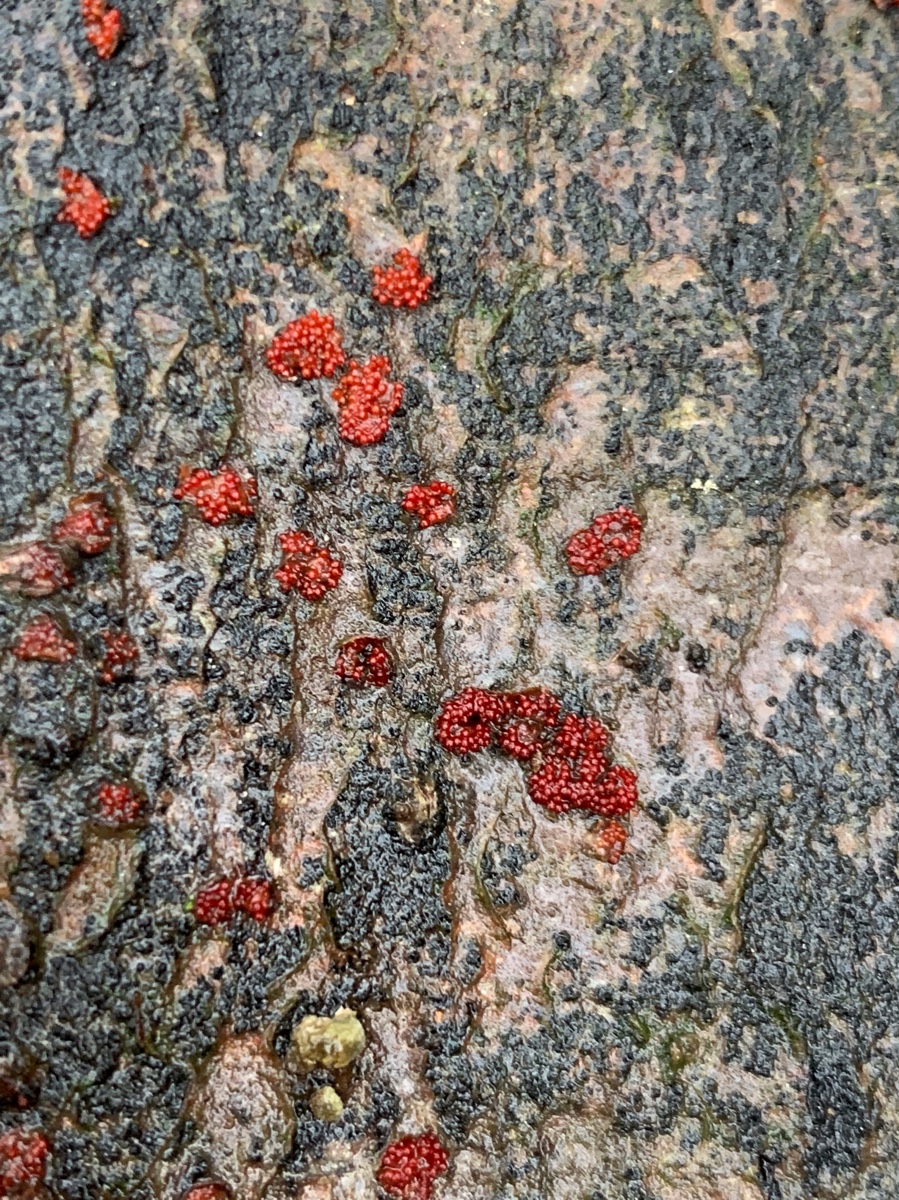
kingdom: Fungi
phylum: Ascomycota
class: Sordariomycetes
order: Hypocreales
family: Nectriaceae
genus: Neonectria
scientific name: Neonectria coccinea
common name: bøgebark-cinnobersvamp
